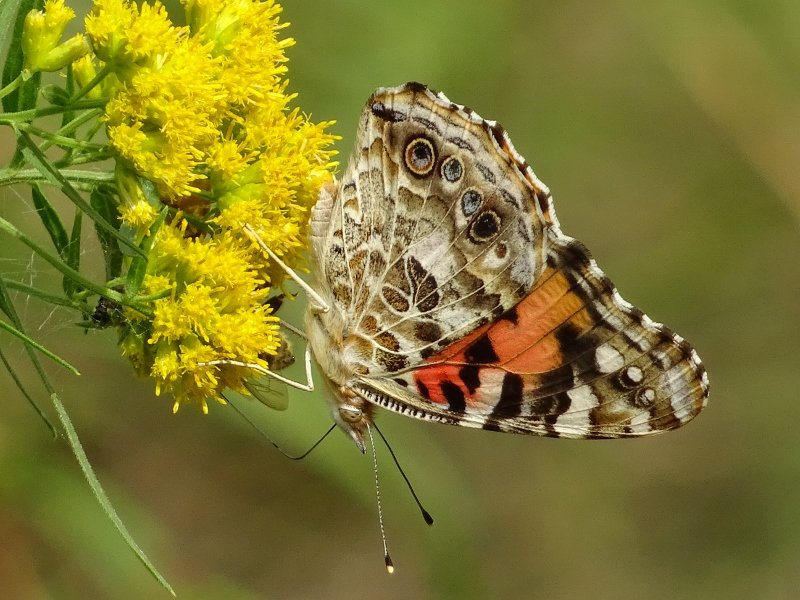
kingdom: Animalia
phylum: Arthropoda
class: Insecta
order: Lepidoptera
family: Nymphalidae
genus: Vanessa
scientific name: Vanessa cardui
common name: Painted Lady
